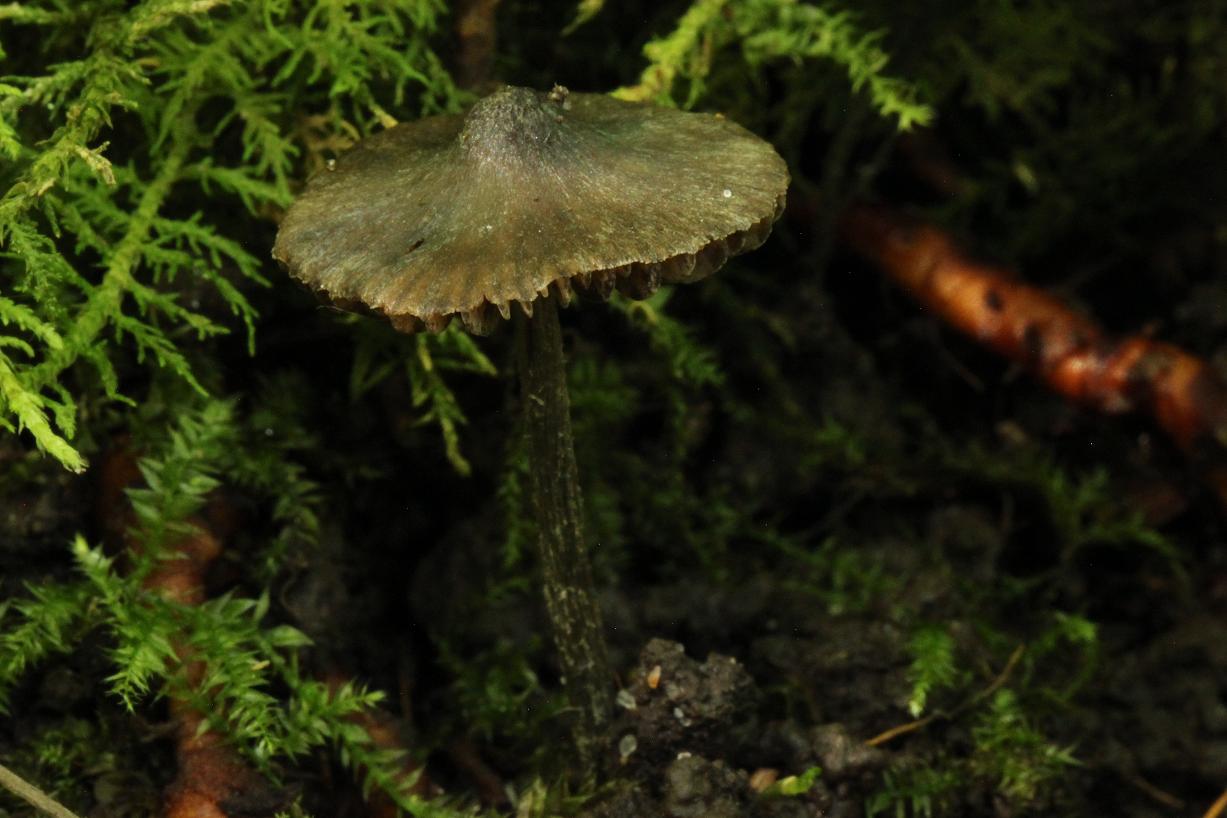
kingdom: Fungi
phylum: Basidiomycota
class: Agaricomycetes
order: Agaricales
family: Entolomataceae
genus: Entoloma
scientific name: Entoloma araneosum
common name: spindelvævs-rødblad
